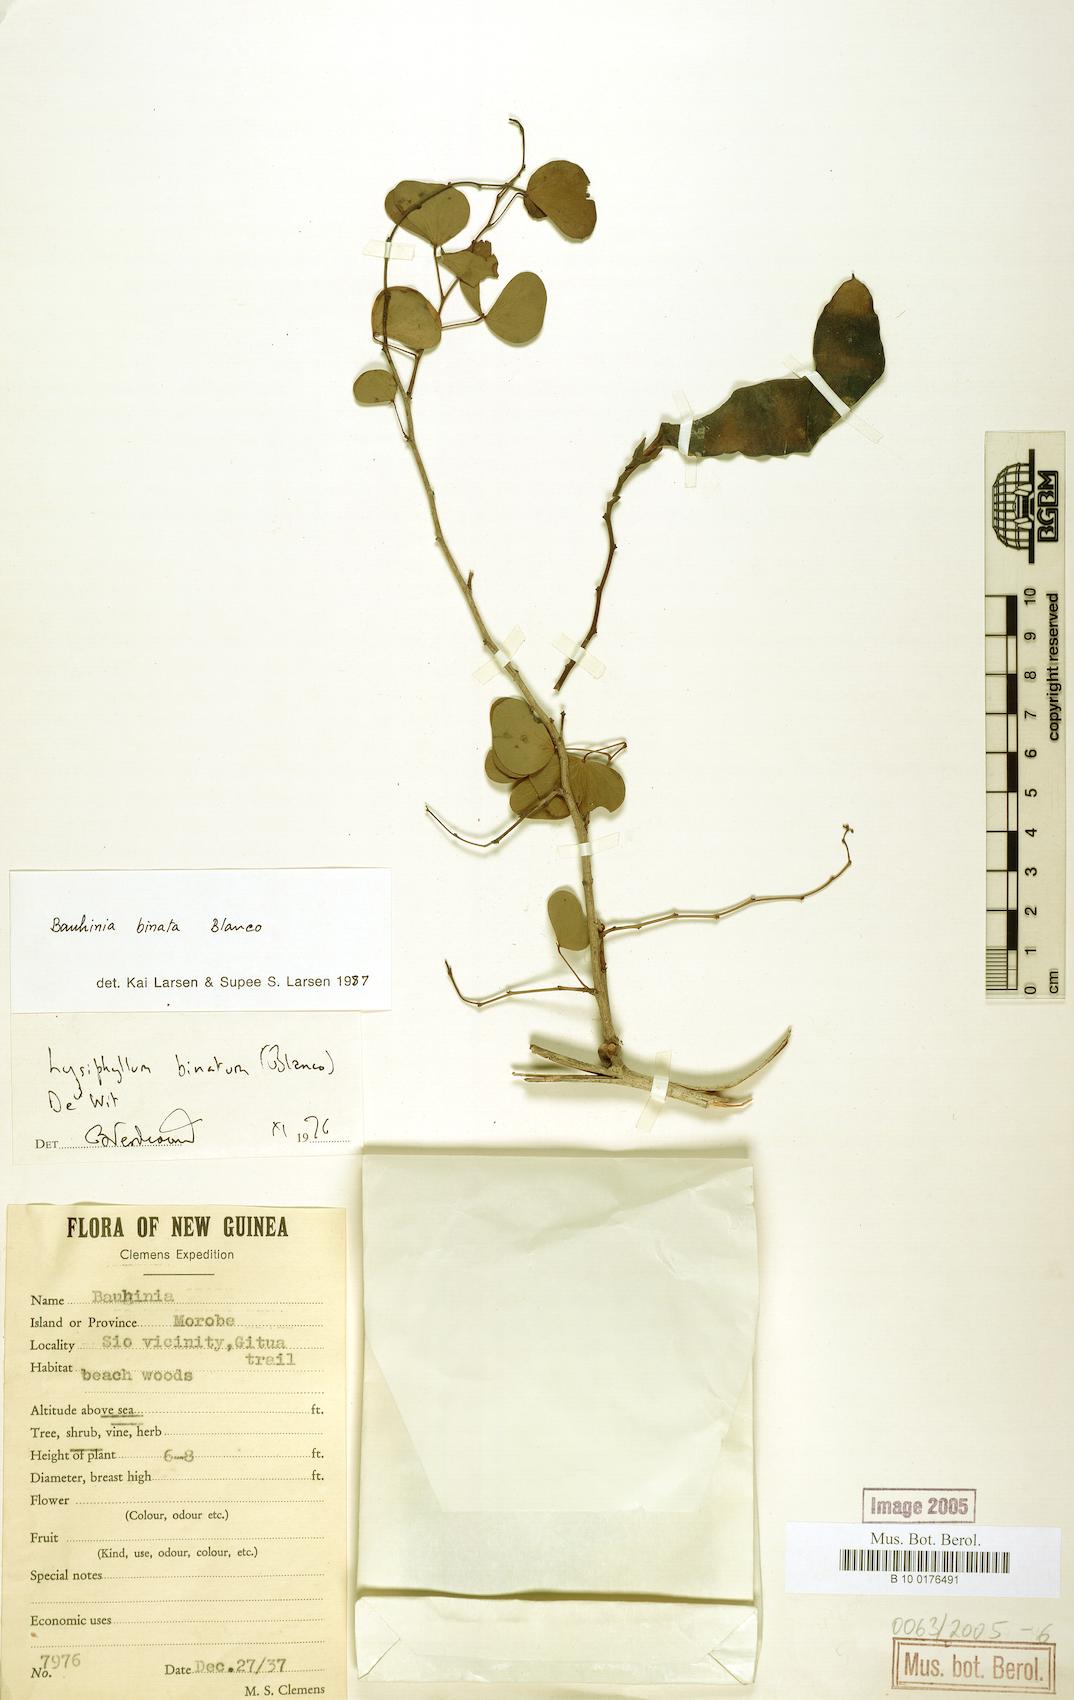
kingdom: Plantae
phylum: Tracheophyta
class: Magnoliopsida
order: Fabales
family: Fabaceae
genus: Lysiphyllum
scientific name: Lysiphyllum binatum
